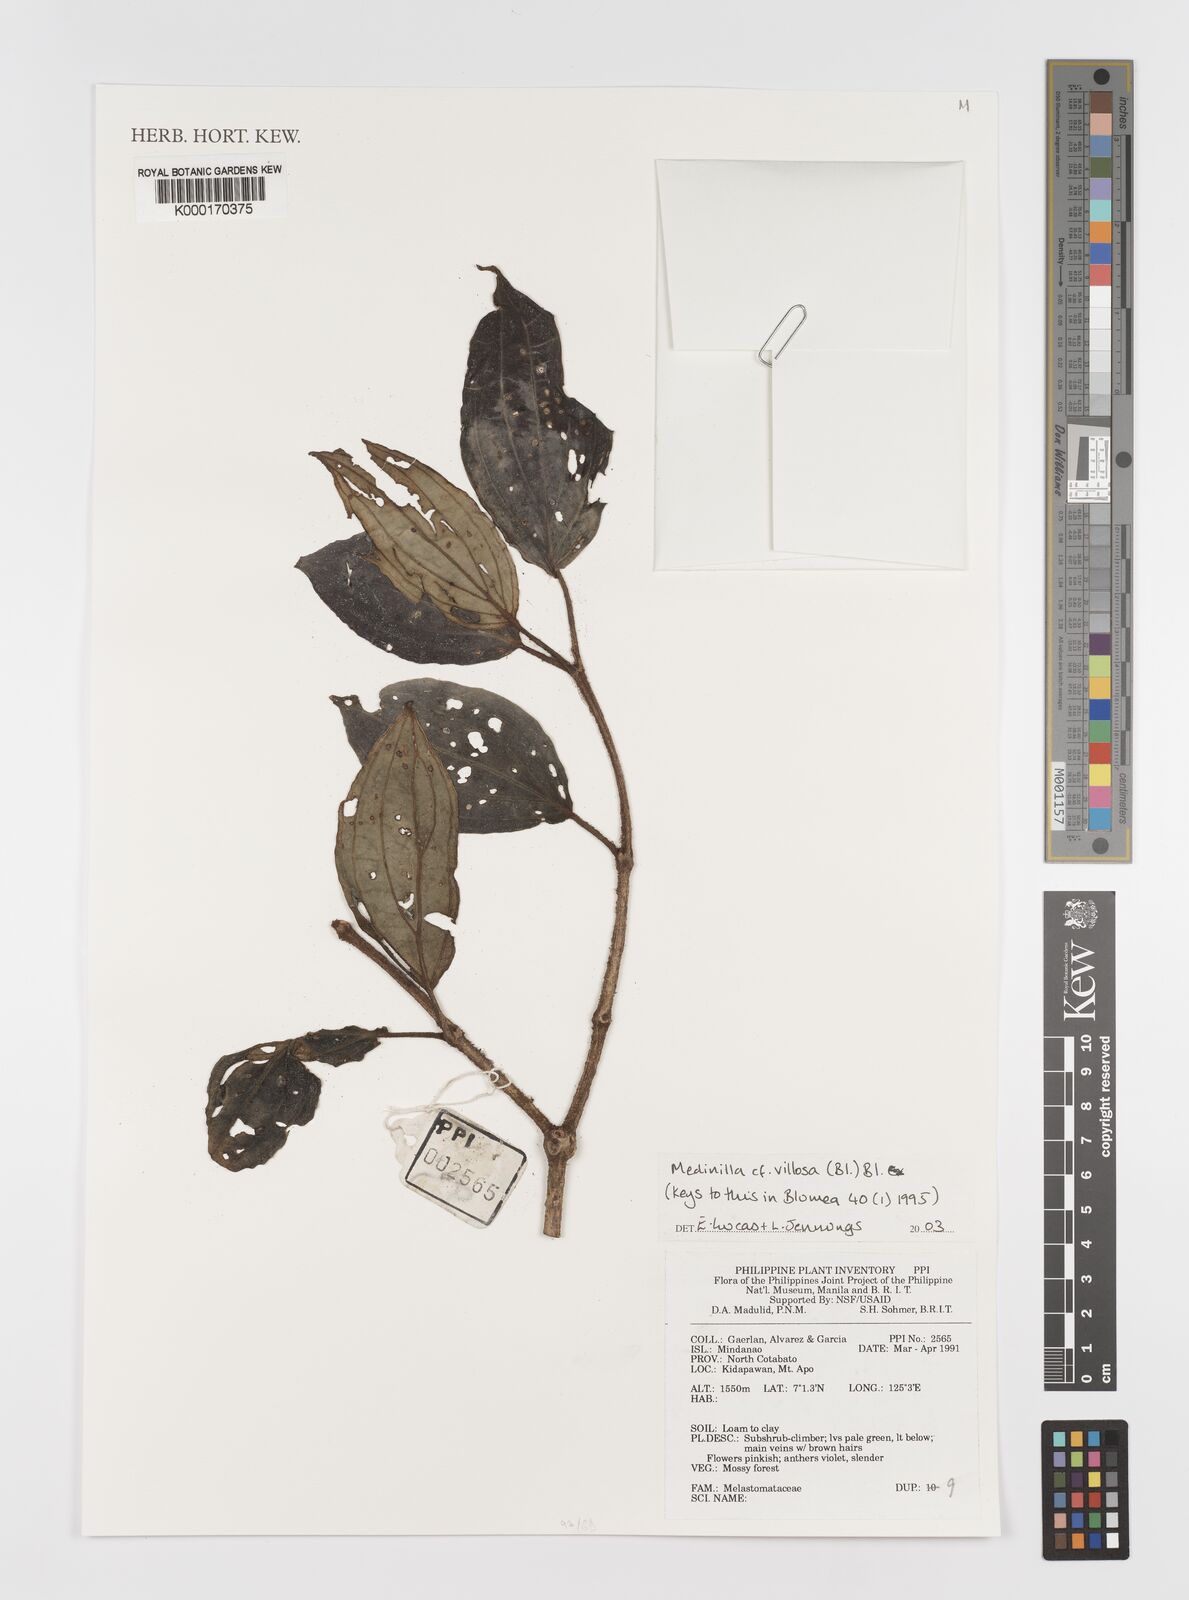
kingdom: Plantae
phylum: Tracheophyta
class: Magnoliopsida
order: Myrtales
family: Melastomataceae
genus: Medinilla
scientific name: Medinilla
